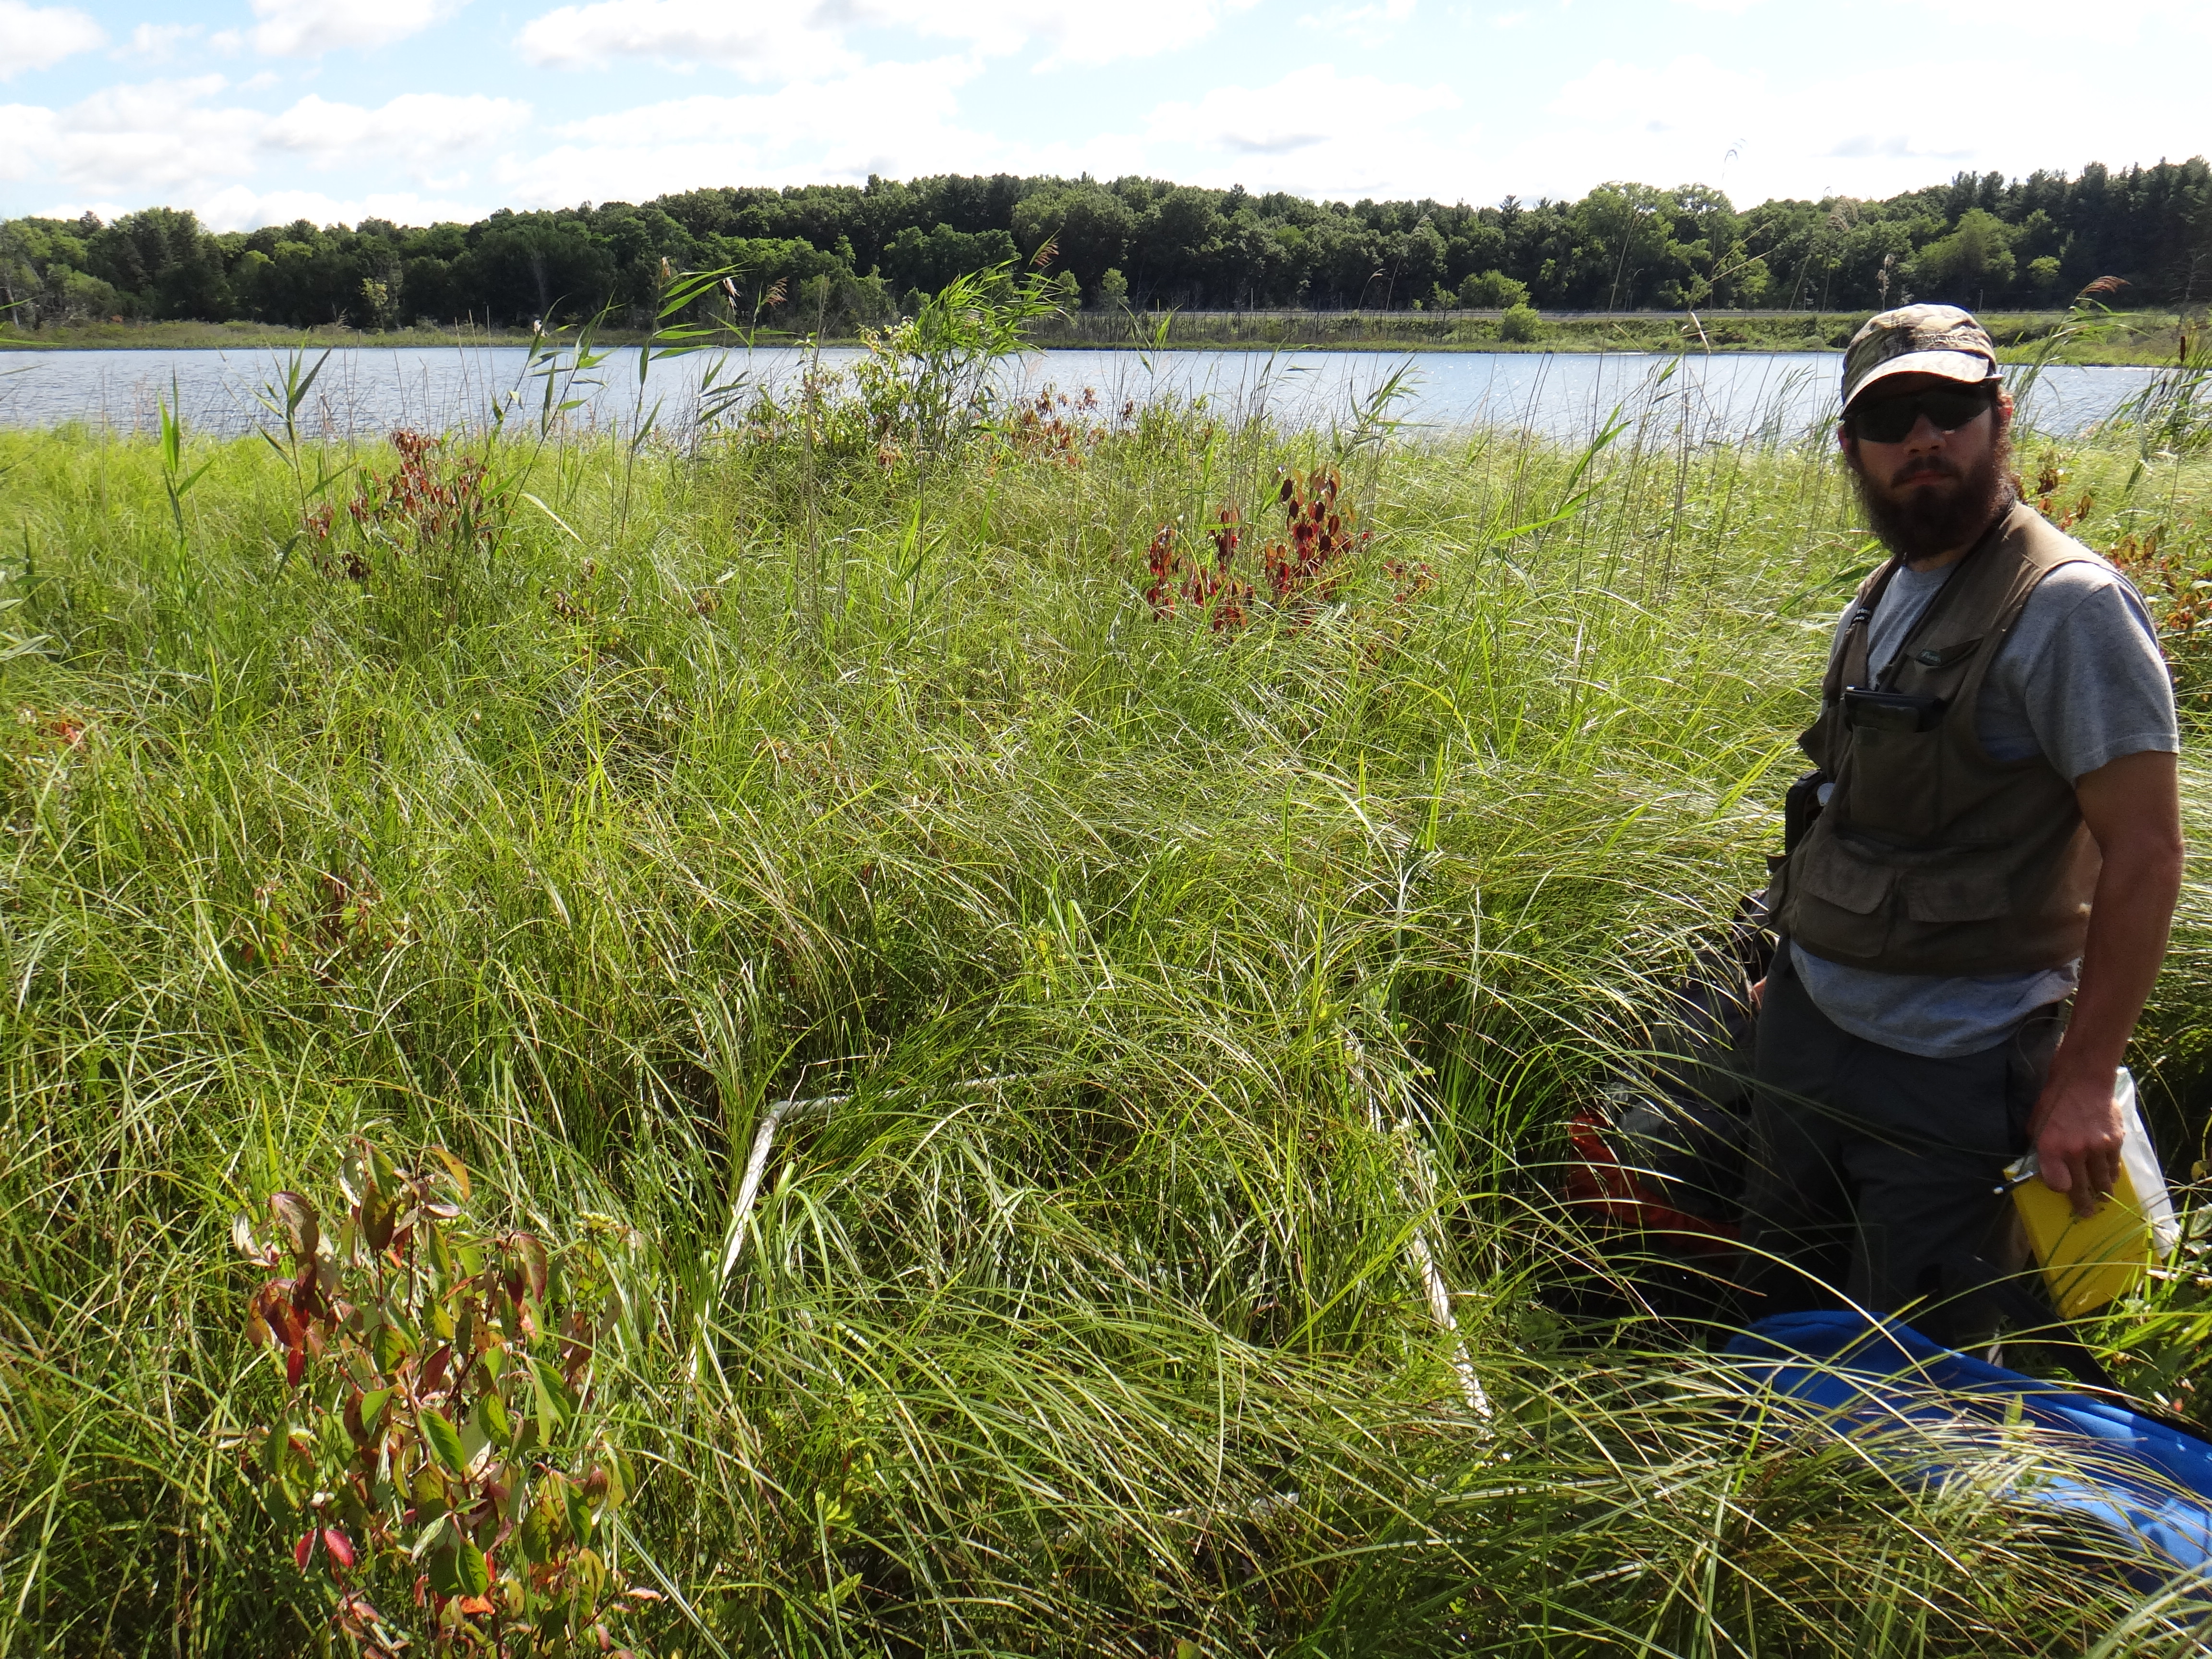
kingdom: Plantae
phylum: Tracheophyta
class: Liliopsida
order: Poales
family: Poaceae
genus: Sporobolus
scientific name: Sporobolus michauxianus
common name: Freshwater cordgrass
